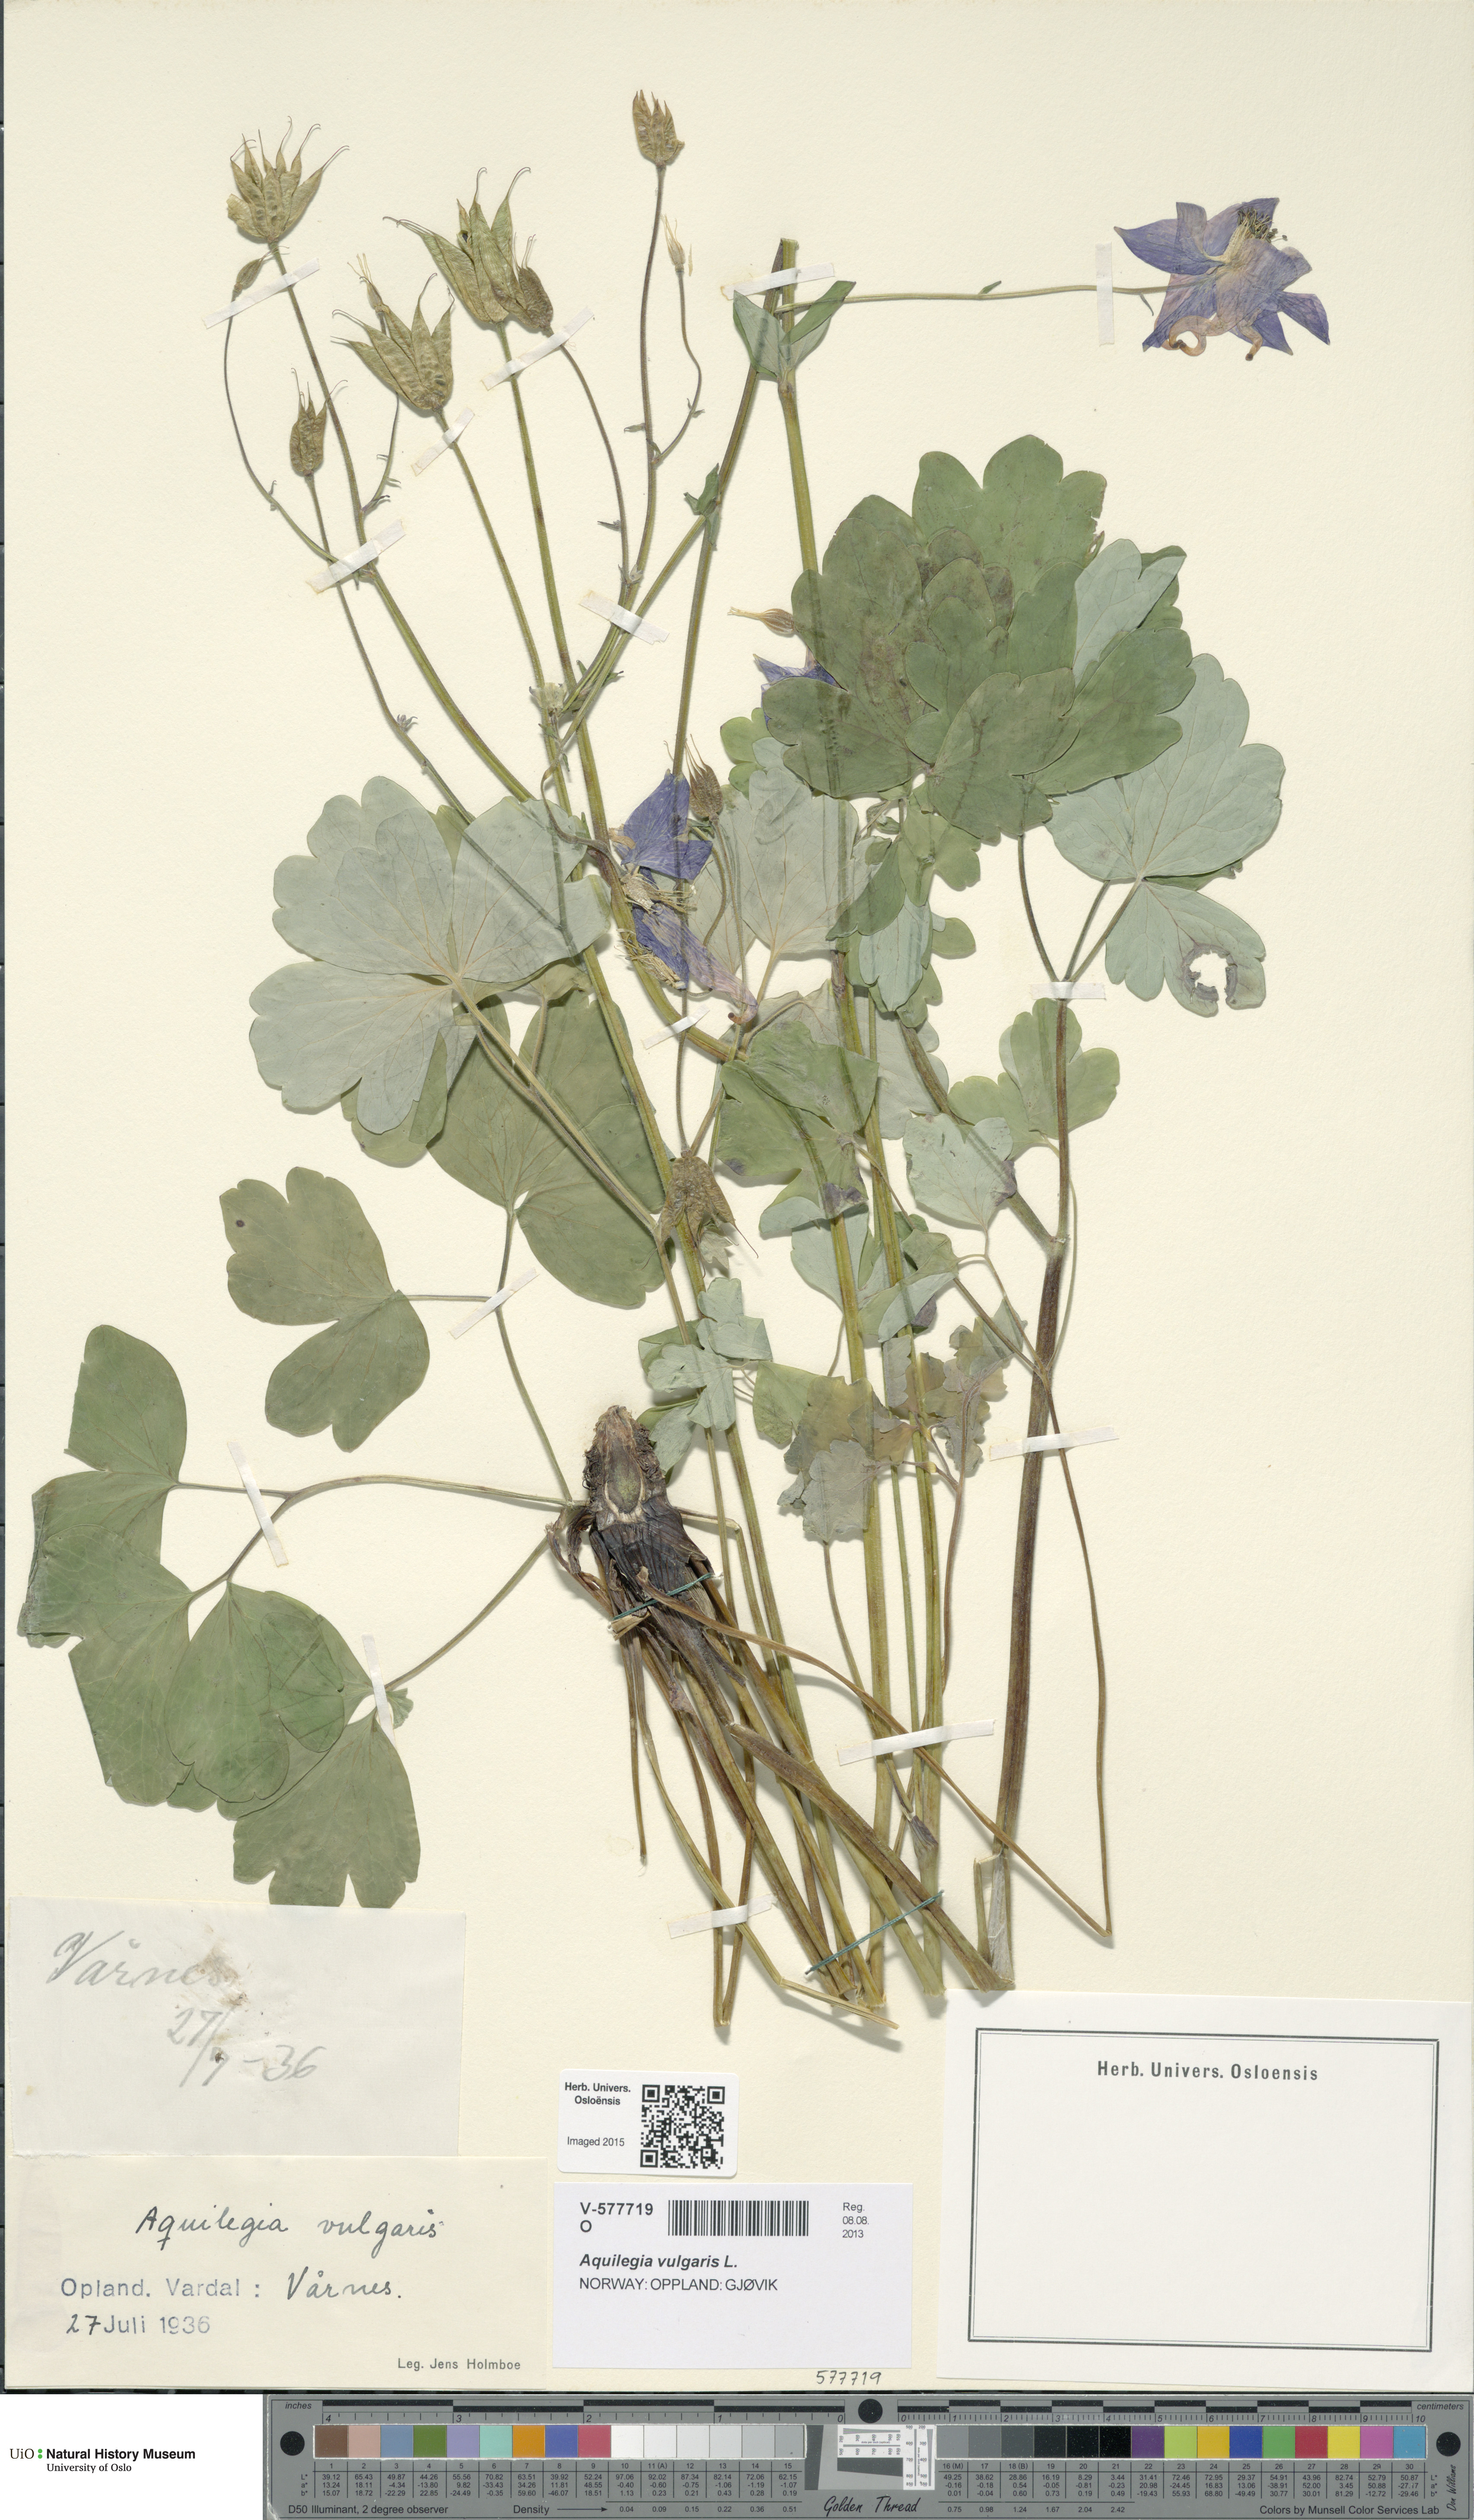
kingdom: Plantae
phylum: Tracheophyta
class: Magnoliopsida
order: Ranunculales
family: Ranunculaceae
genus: Aquilegia
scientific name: Aquilegia vulgaris
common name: Columbine
